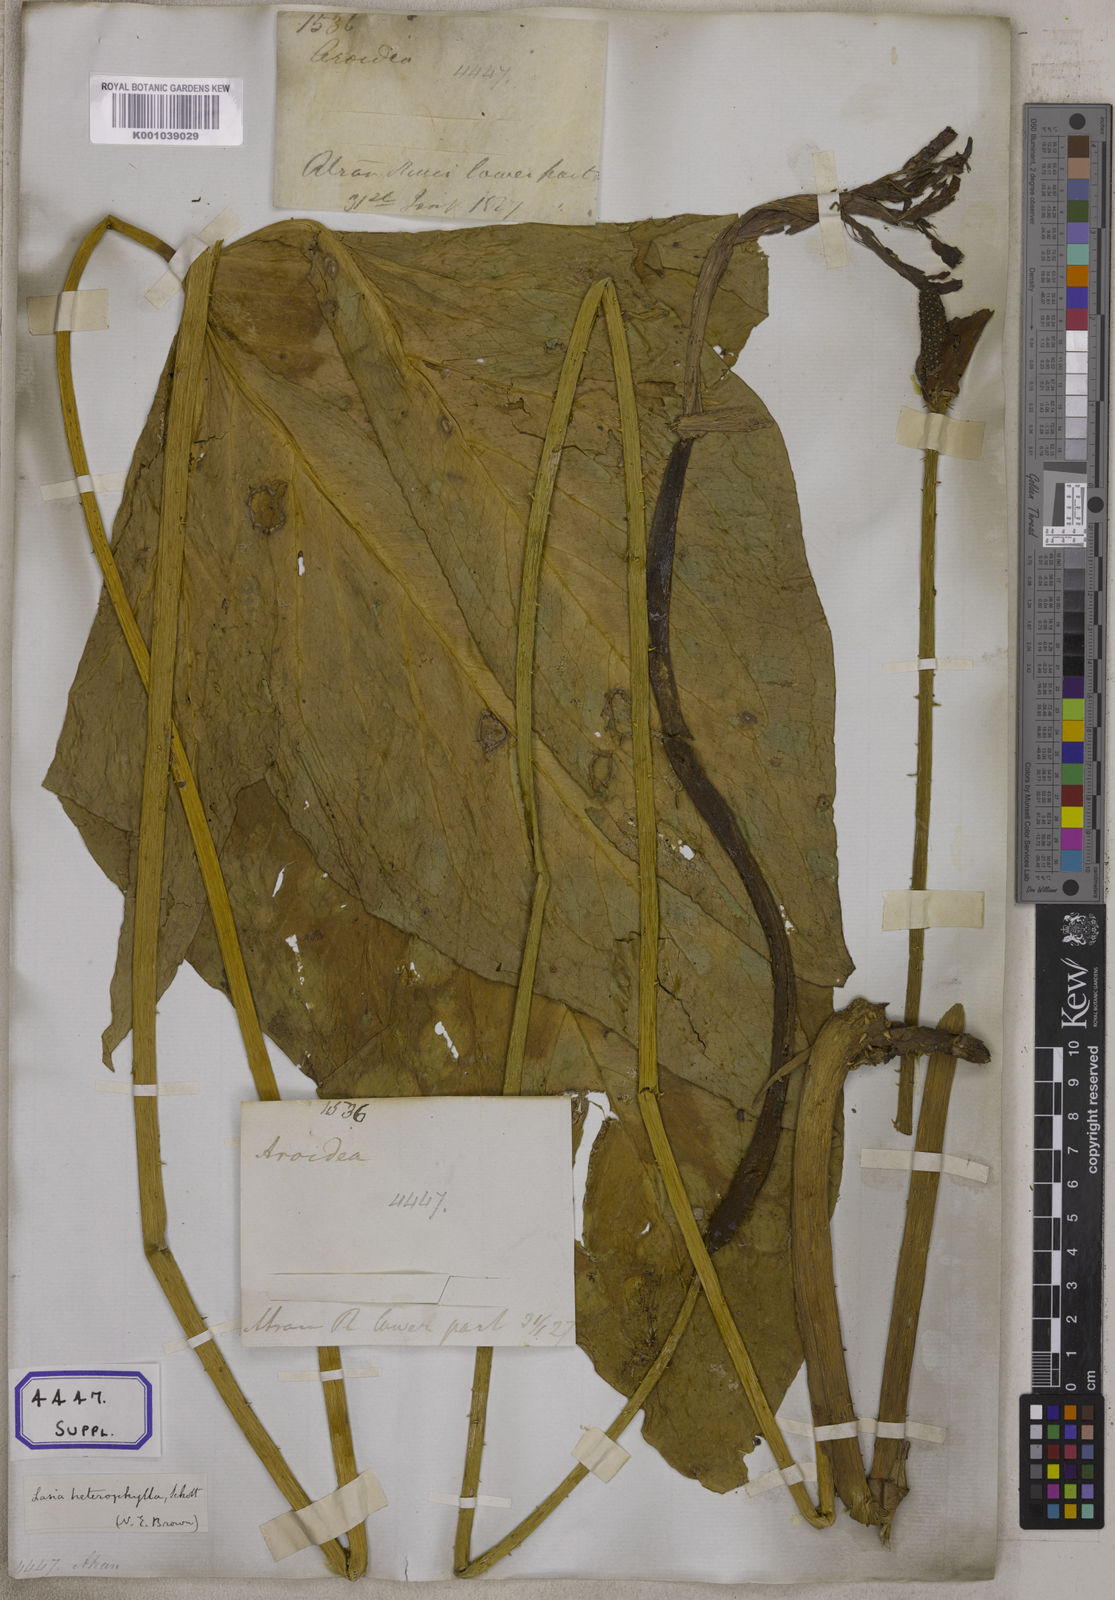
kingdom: Plantae
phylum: Tracheophyta
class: Liliopsida
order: Alismatales
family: Araceae
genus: Lasia
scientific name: Lasia spinosa
